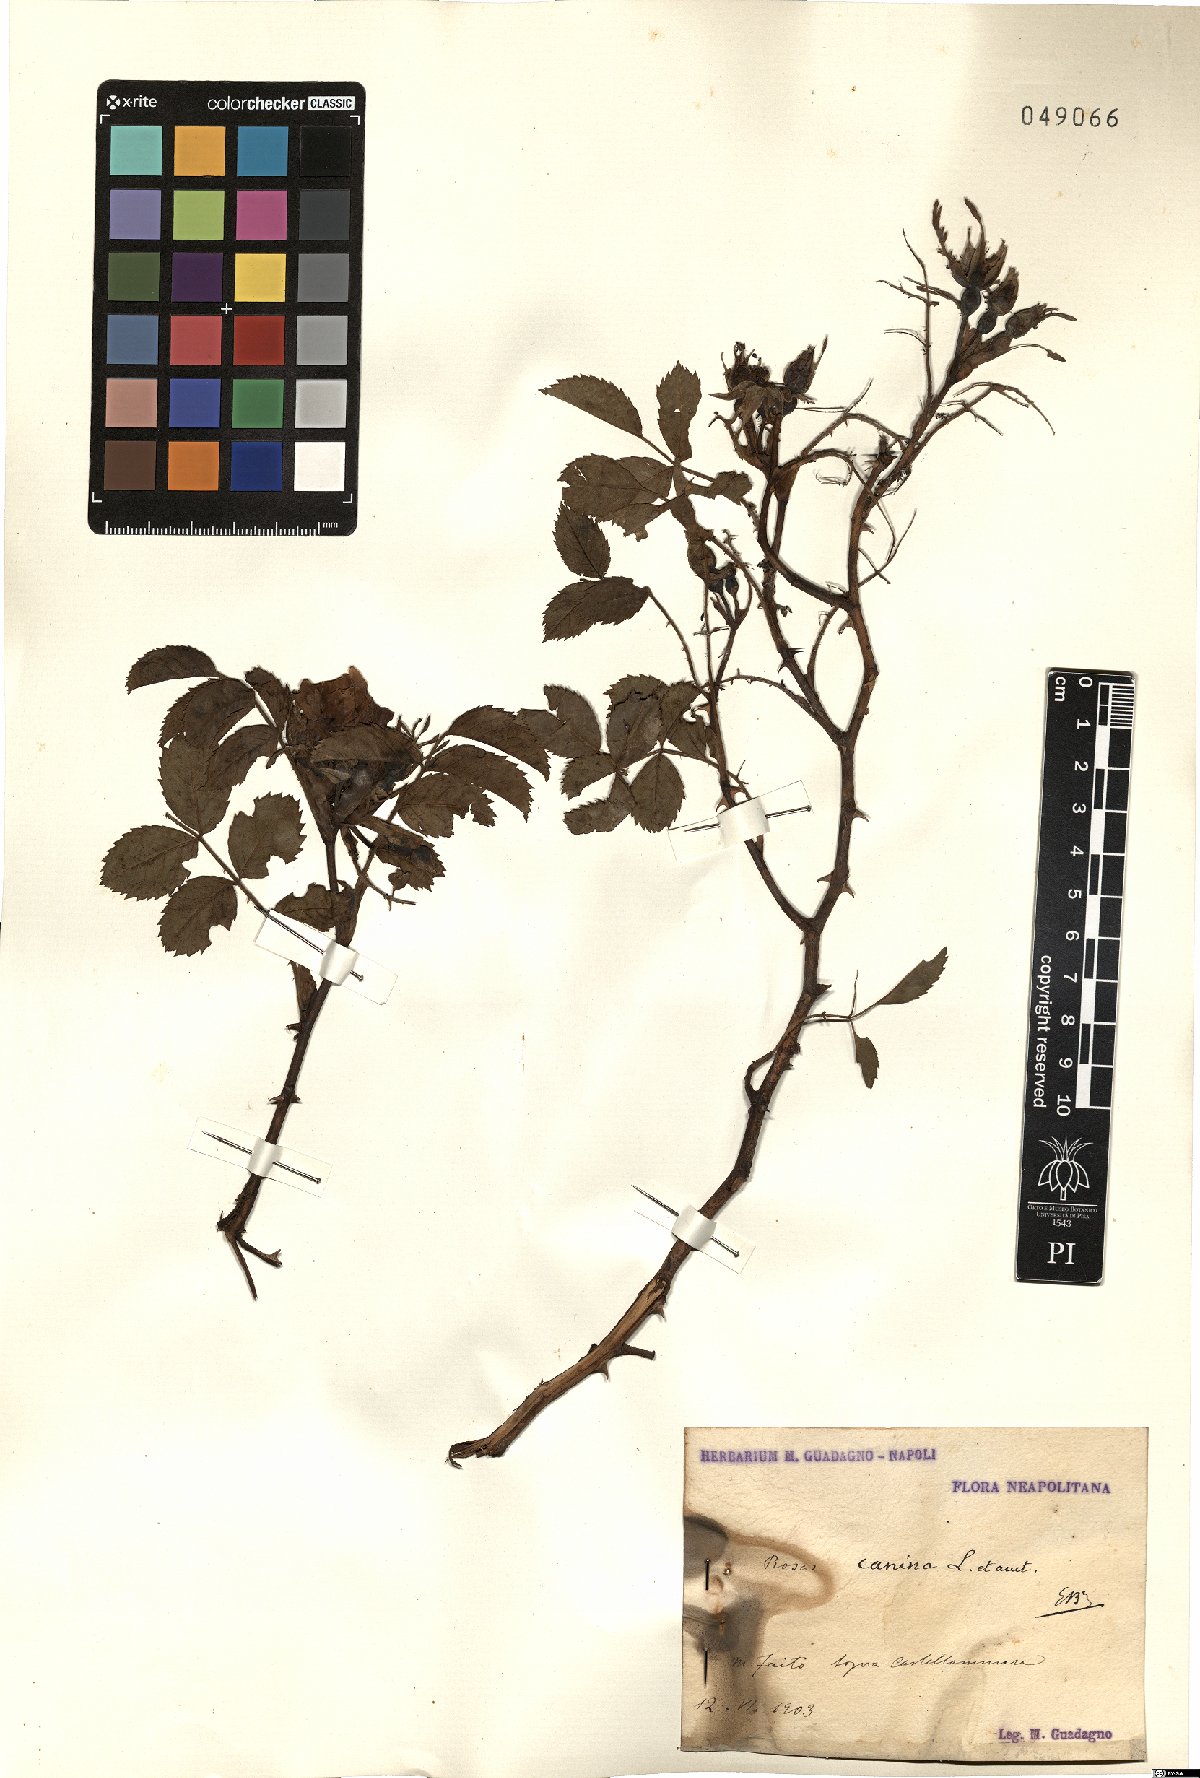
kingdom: Plantae
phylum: Tracheophyta
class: Magnoliopsida
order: Rosales
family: Rosaceae
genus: Rosa
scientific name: Rosa canina
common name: Dog rose
